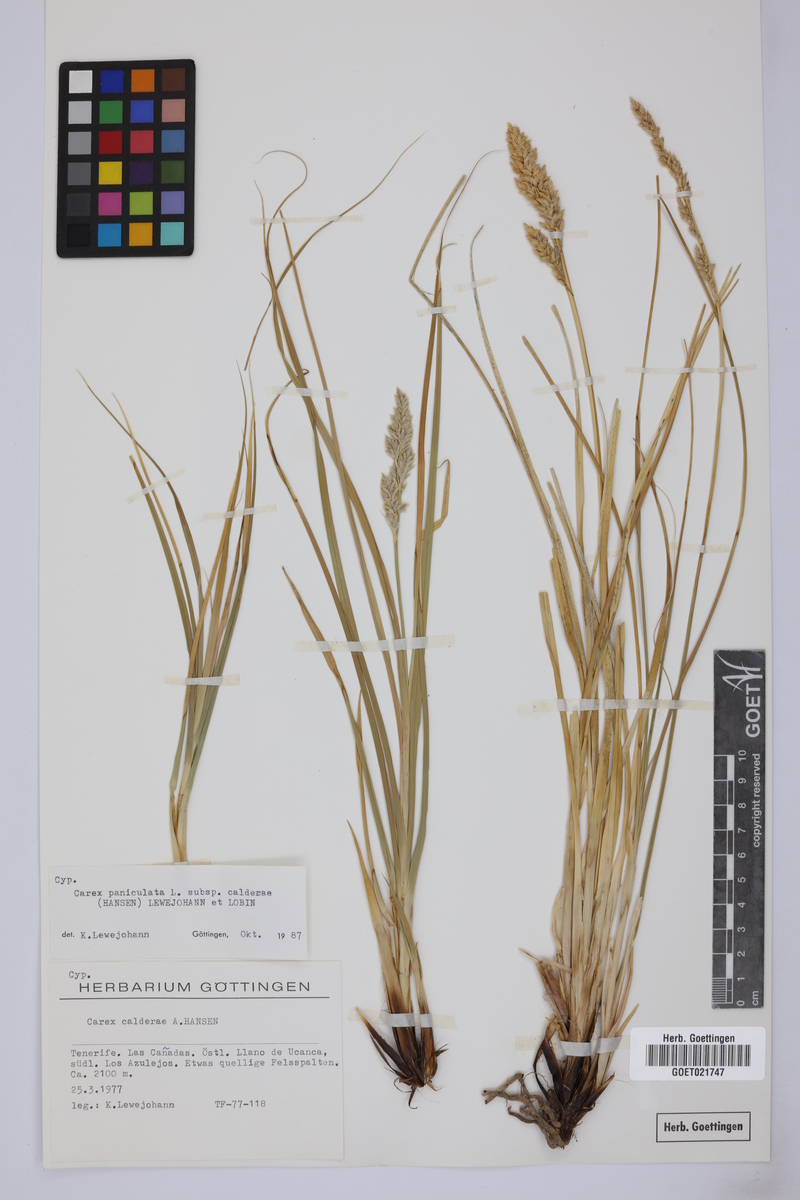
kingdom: Plantae
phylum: Tracheophyta
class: Liliopsida
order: Poales
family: Cyperaceae
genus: Carex
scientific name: Carex paniculata
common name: Greater tussock-sedge
